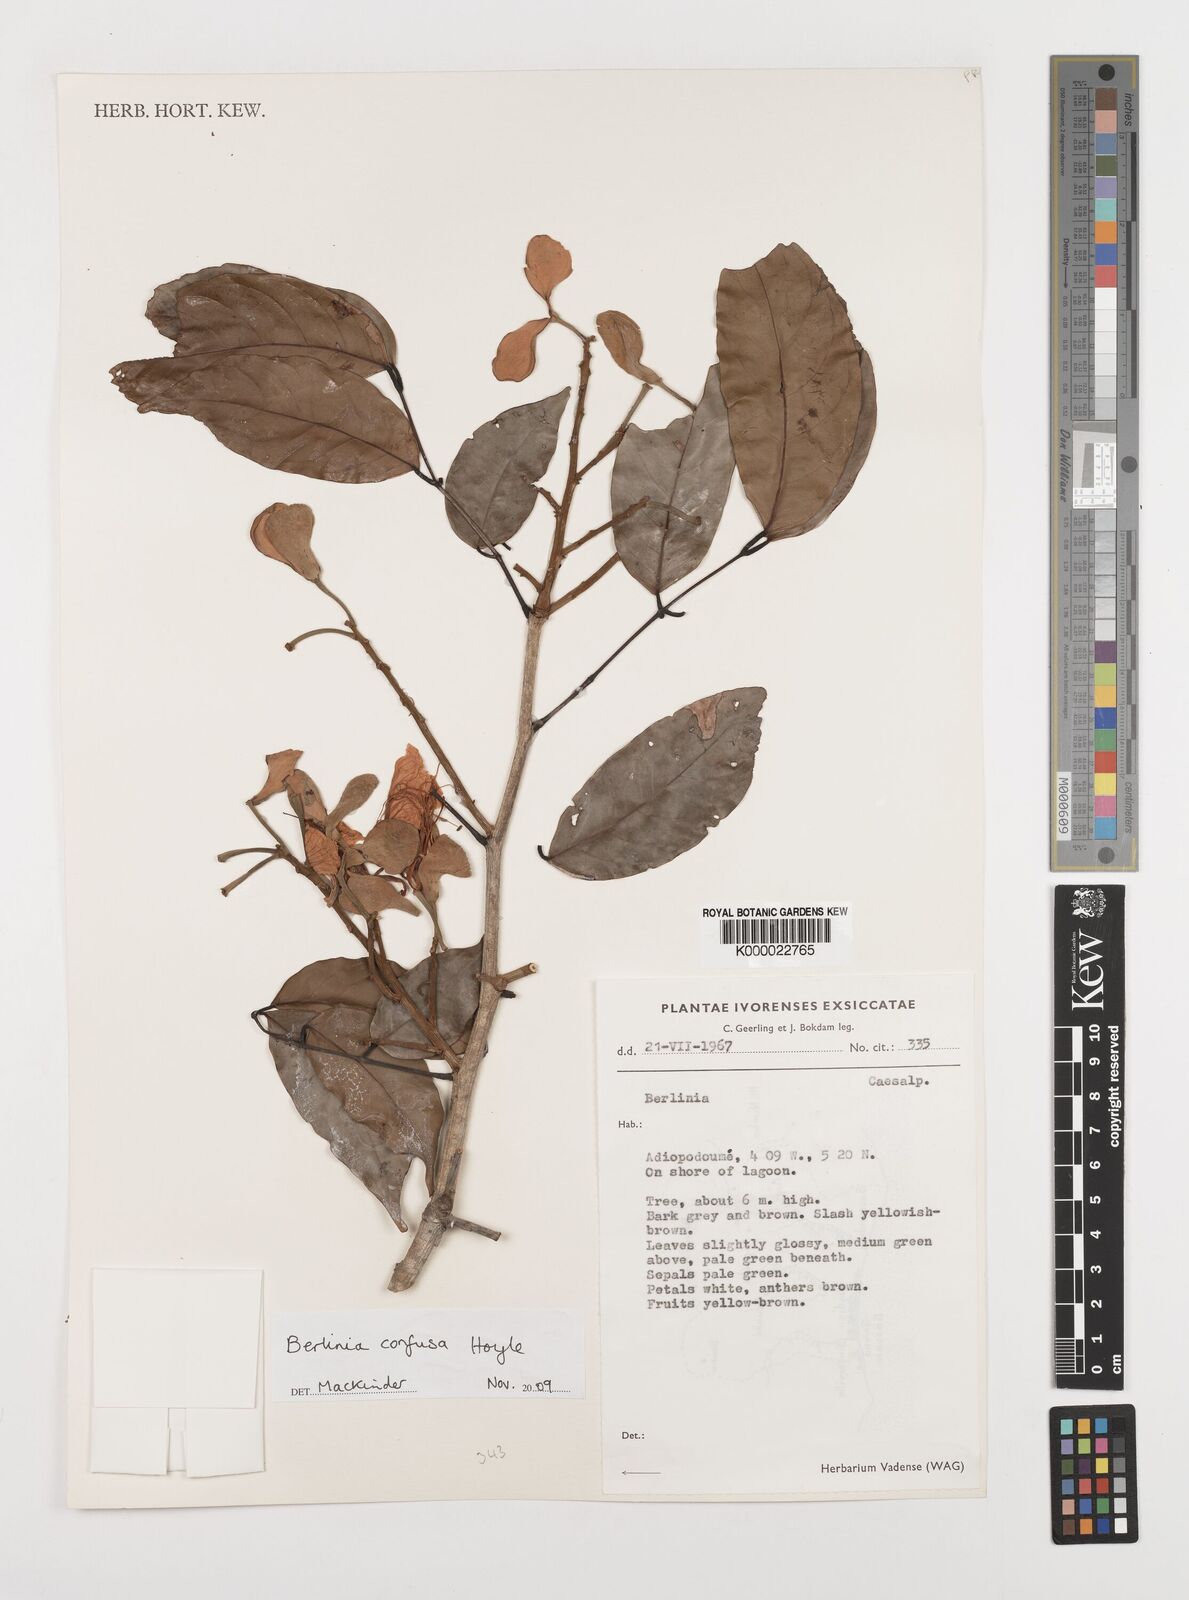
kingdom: Plantae
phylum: Tracheophyta
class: Magnoliopsida
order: Fabales
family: Fabaceae
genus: Berlinia
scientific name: Berlinia confusa
